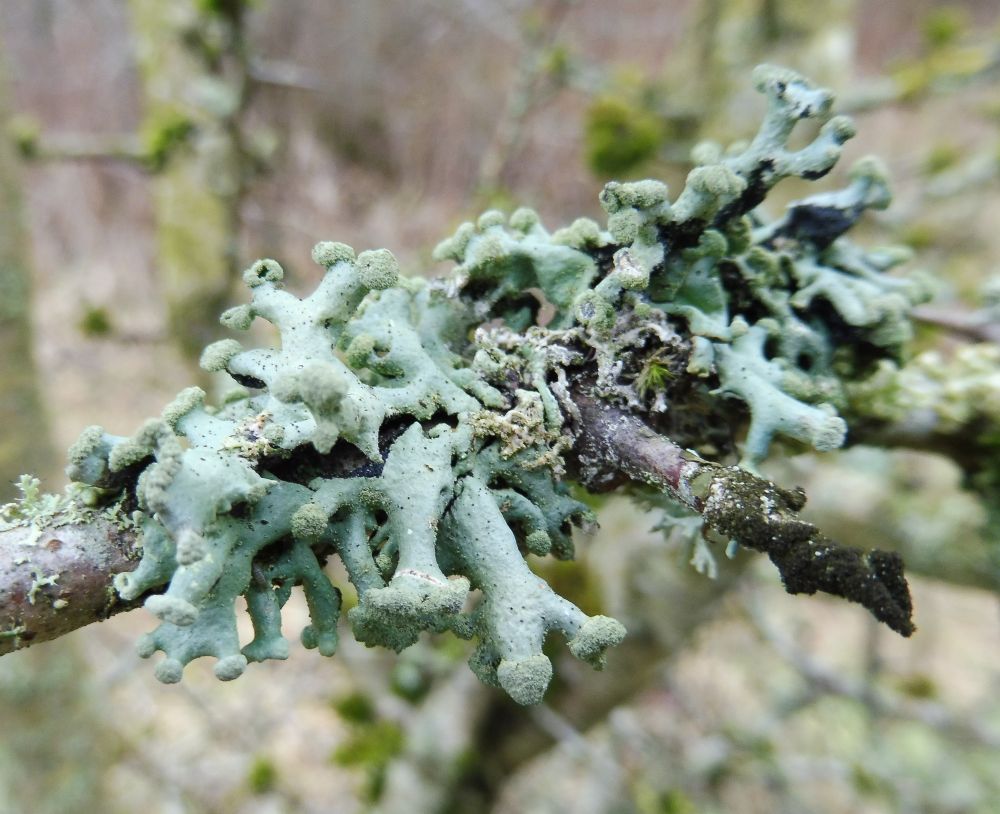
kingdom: Fungi
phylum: Ascomycota
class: Lecanoromycetes
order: Lecanorales
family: Parmeliaceae
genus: Hypogymnia
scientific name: Hypogymnia tubulosa
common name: finger-kvistlav
